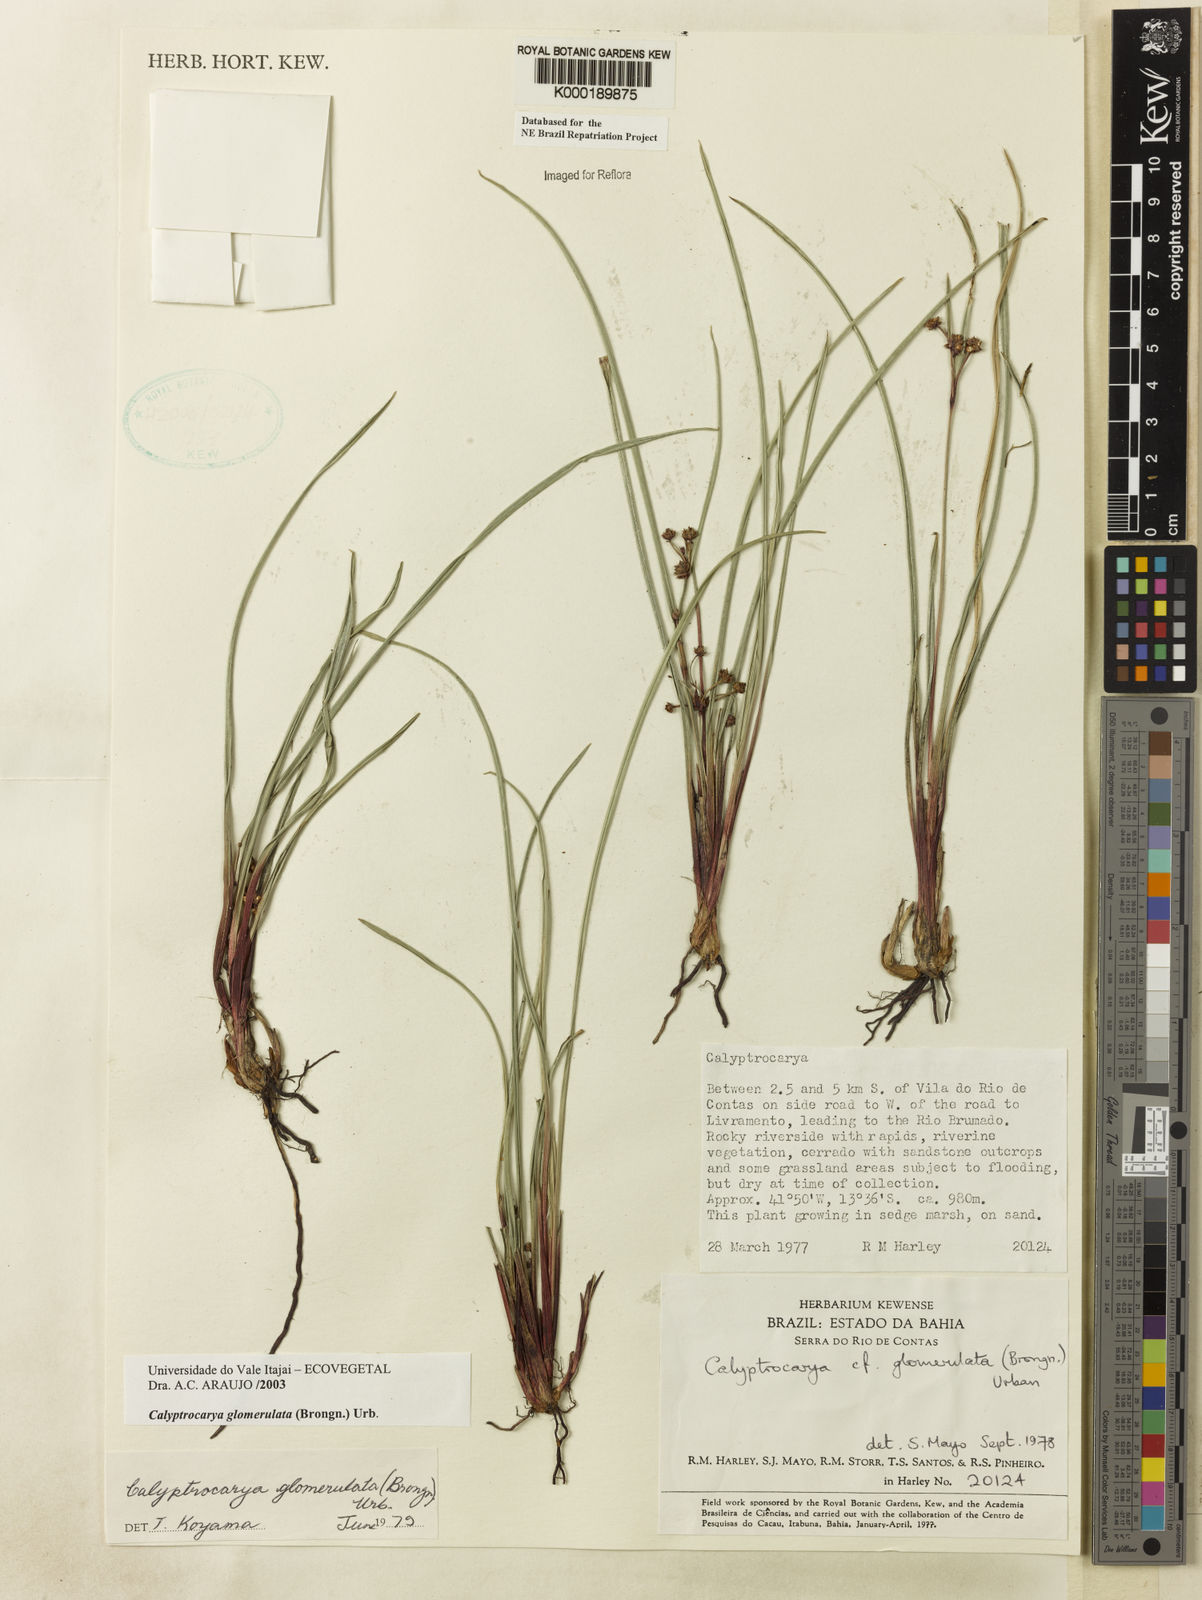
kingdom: Plantae
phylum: Tracheophyta
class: Liliopsida
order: Poales
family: Cyperaceae
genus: Calyptrocarya
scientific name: Calyptrocarya glomerulata
